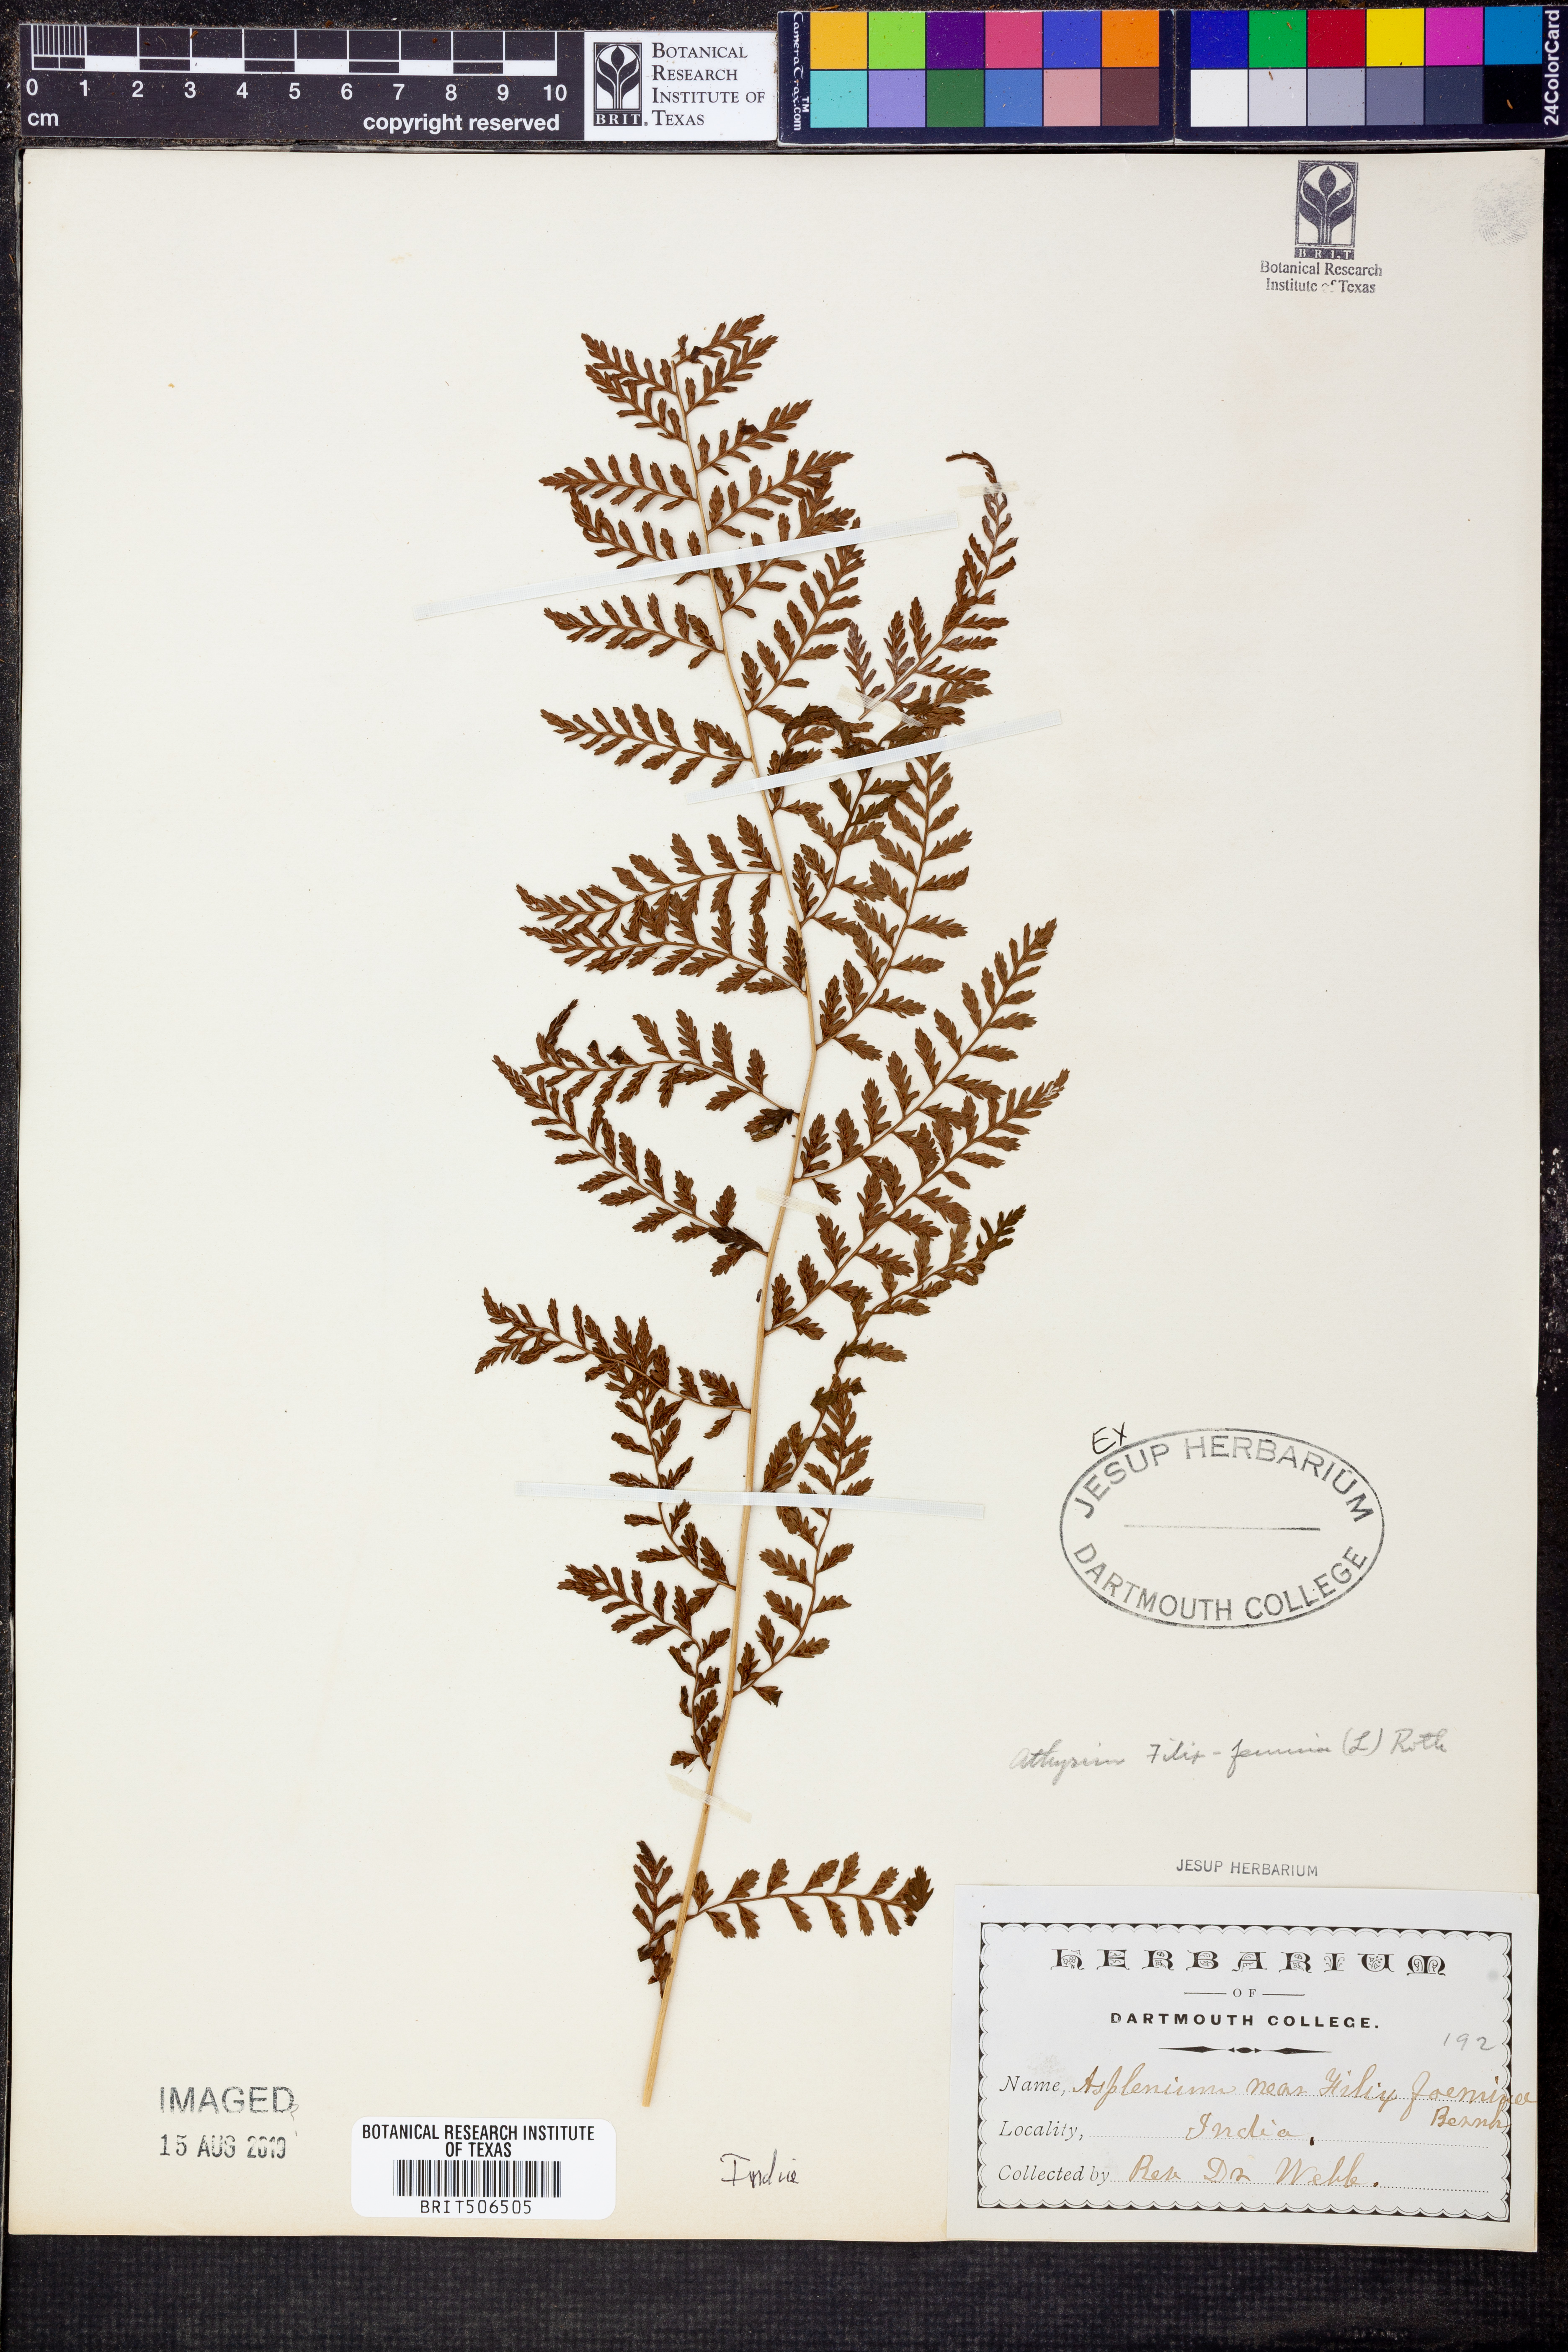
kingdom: Plantae
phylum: Tracheophyta
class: Polypodiopsida
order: Polypodiales
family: Athyriaceae
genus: Athyrium
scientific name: Athyrium filix-femina
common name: Lady fern
